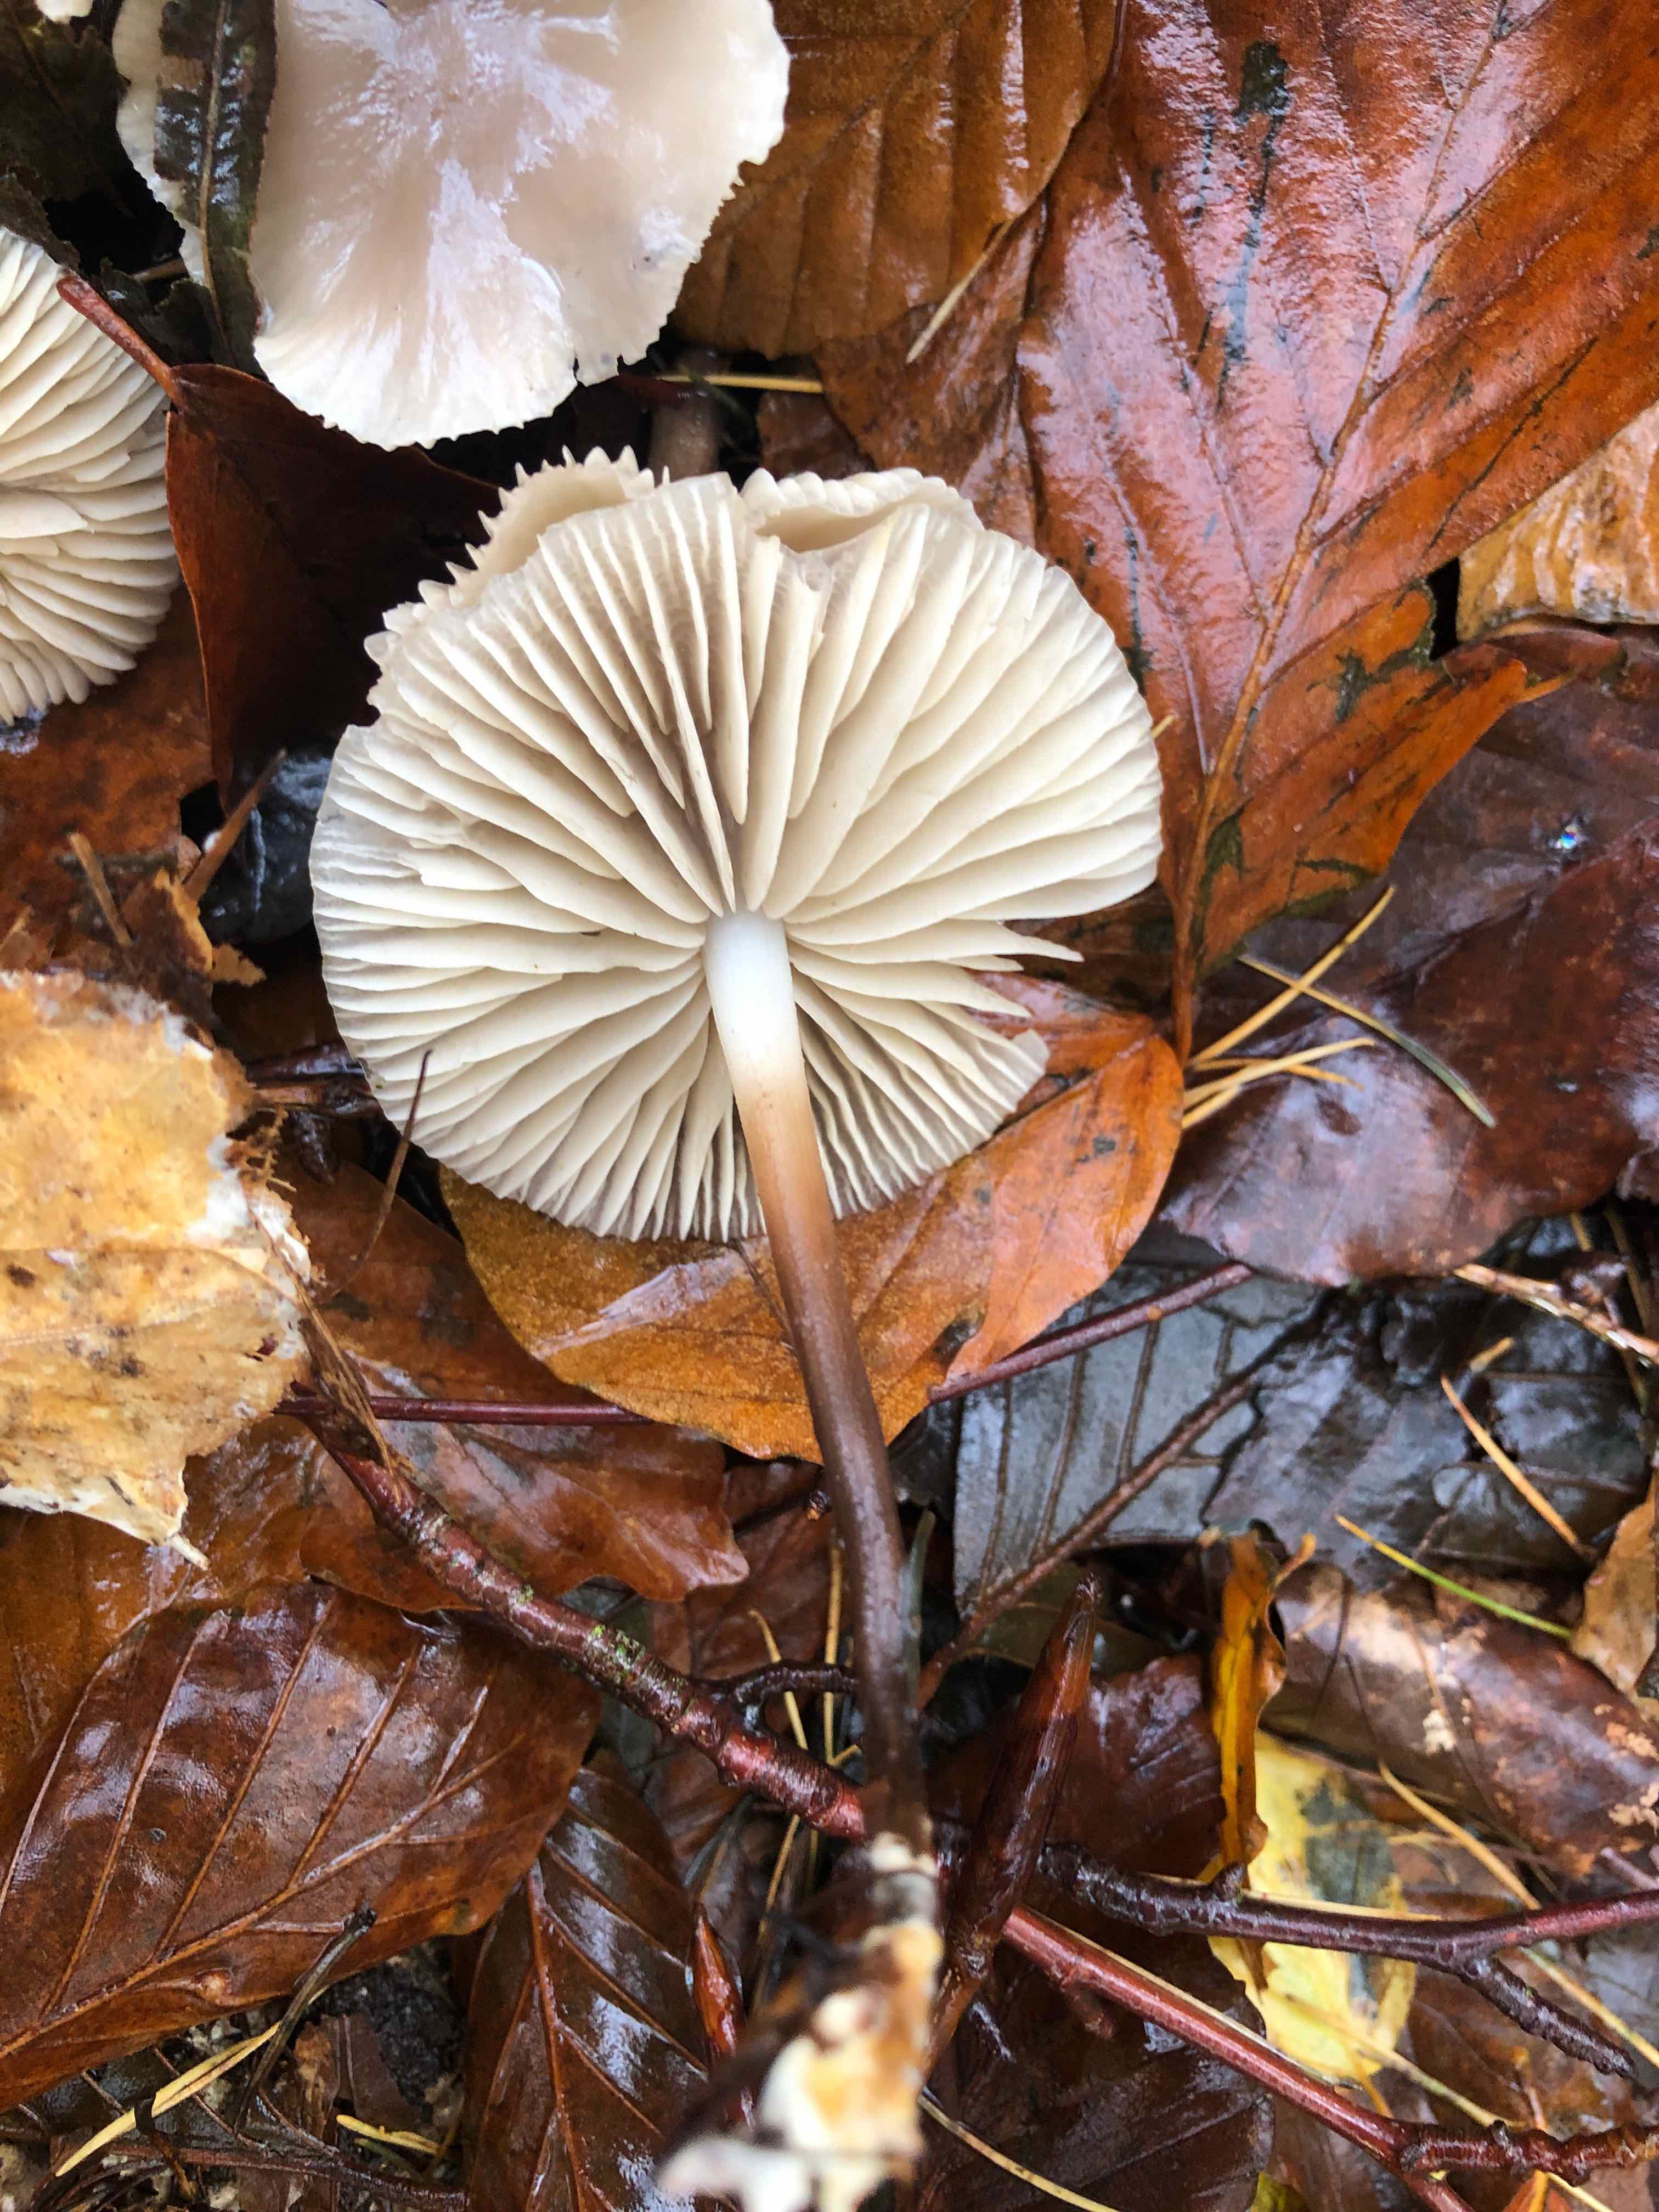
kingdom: Fungi
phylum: Basidiomycota
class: Agaricomycetes
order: Agaricales
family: Marasmiaceae
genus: Marasmius
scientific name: Marasmius wynneae
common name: hvælvet bruskhat
